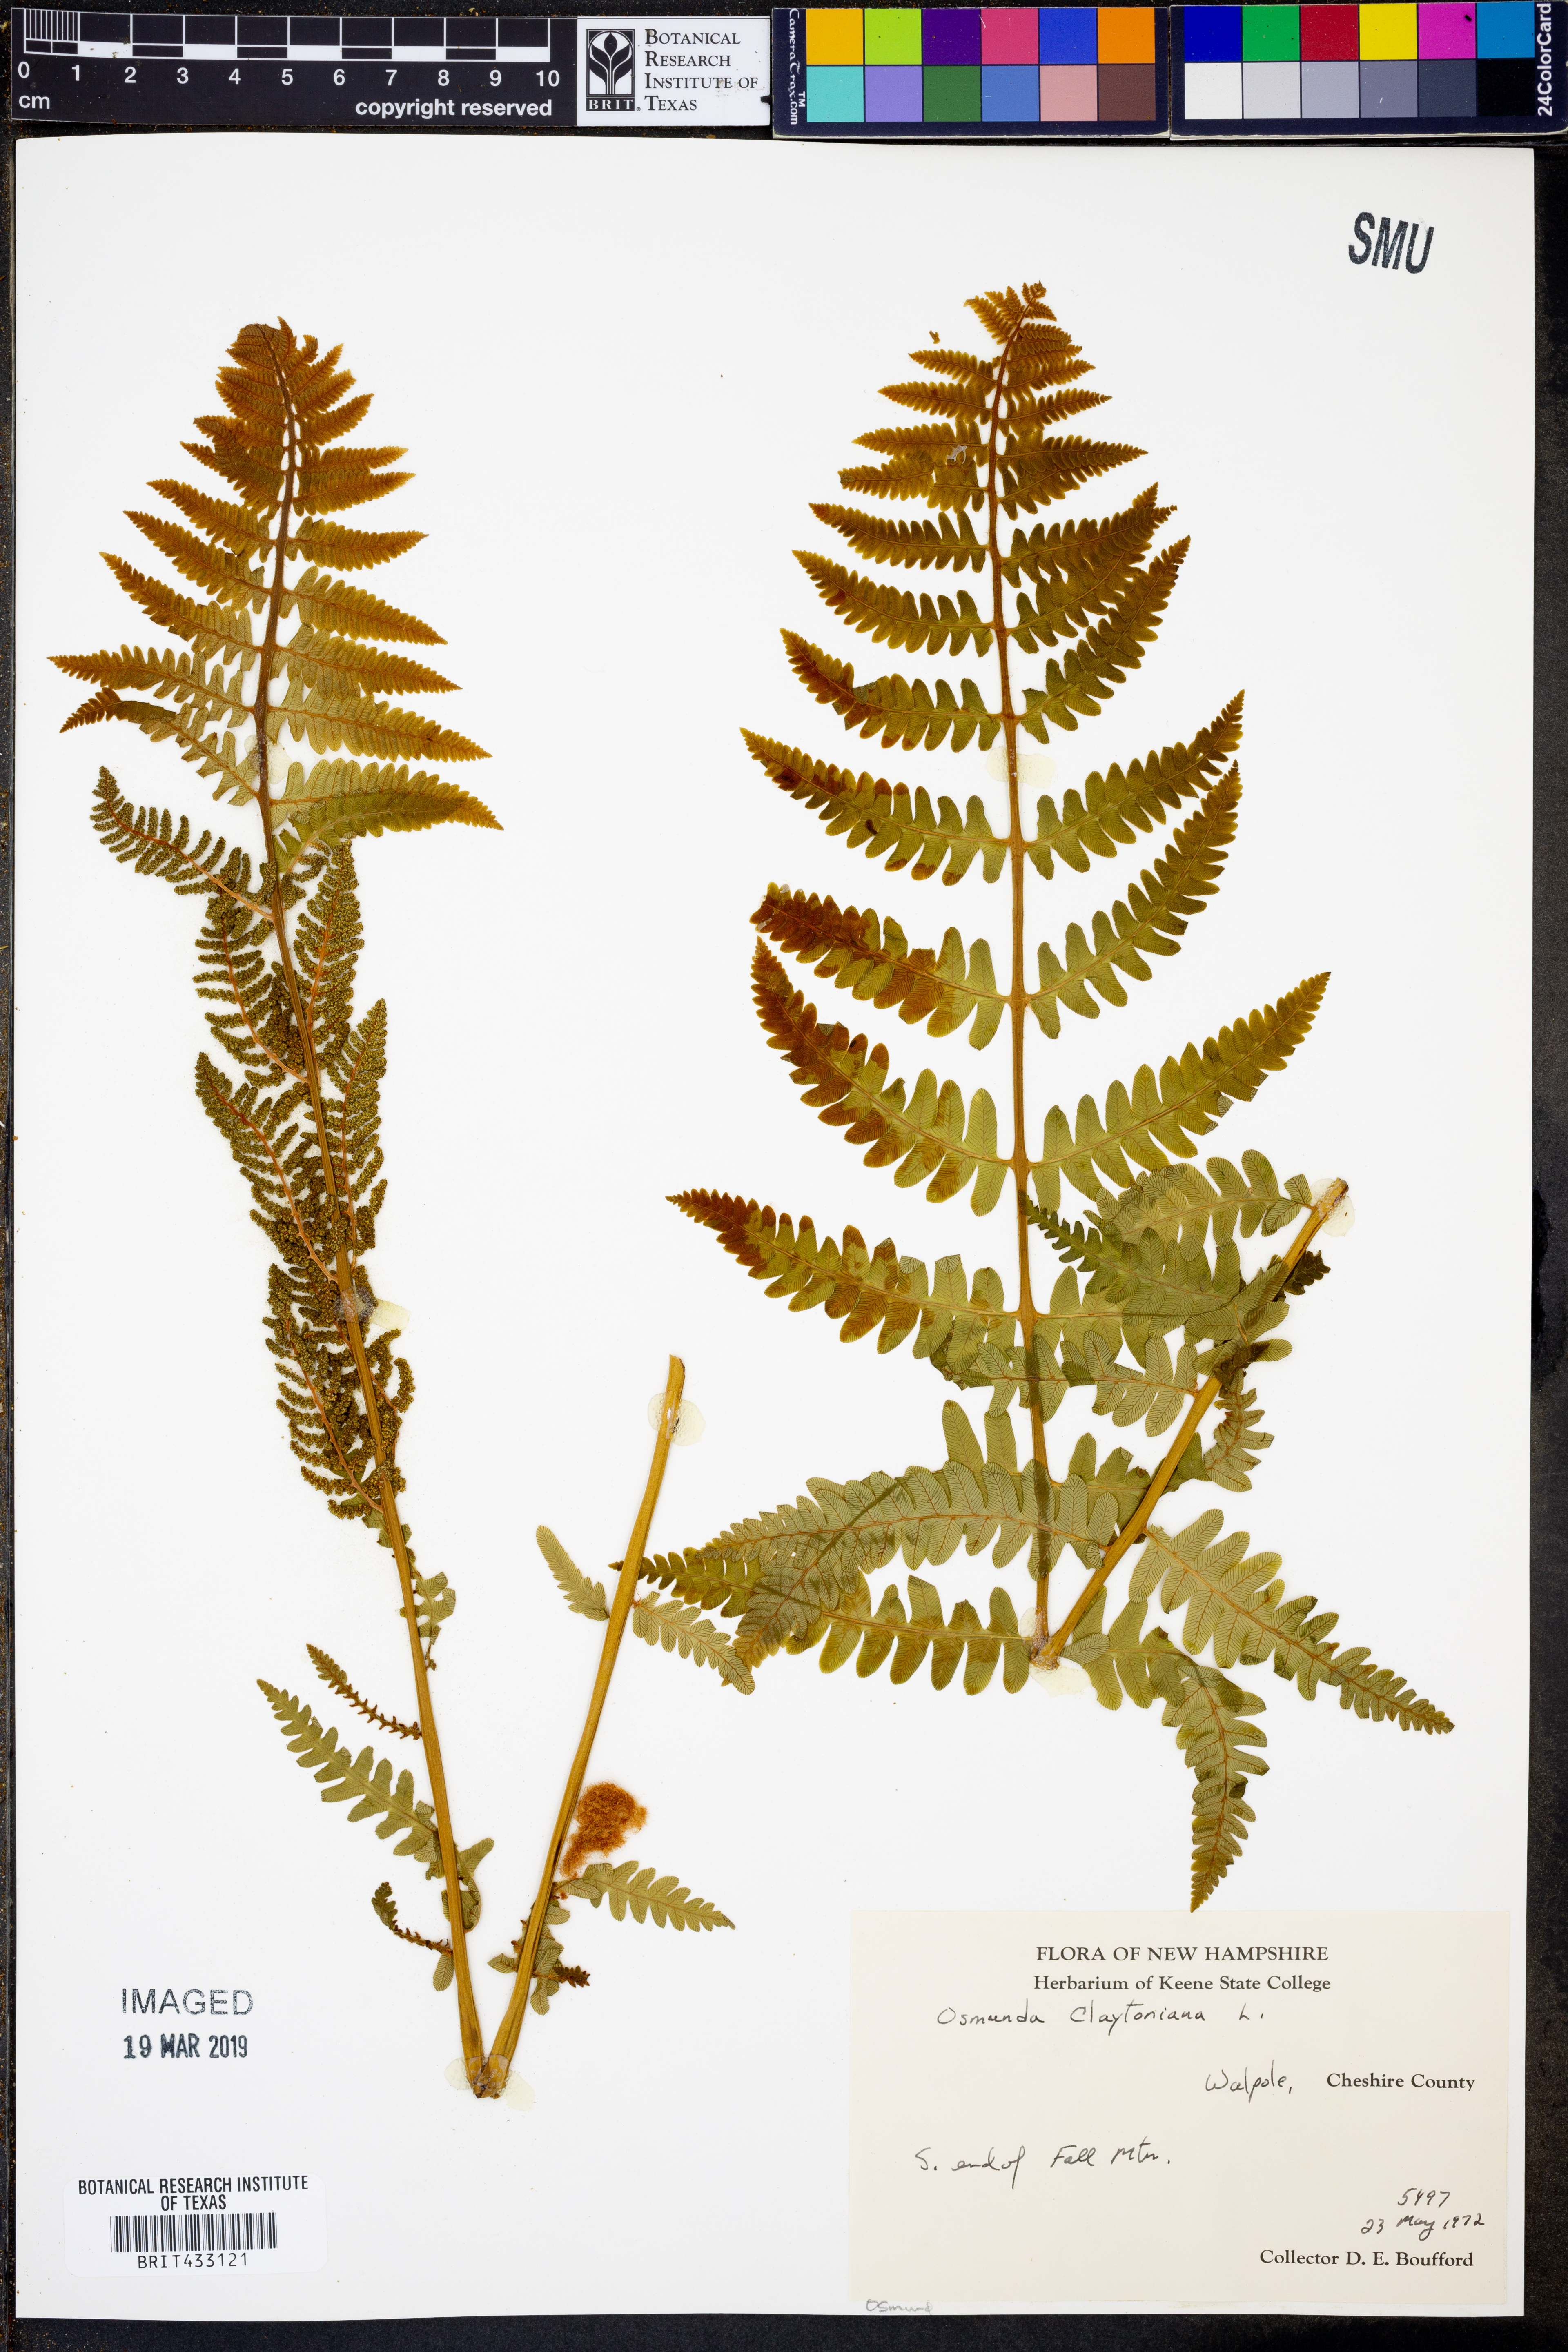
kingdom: Plantae
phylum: Tracheophyta
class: Polypodiopsida
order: Osmundales
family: Osmundaceae
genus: Claytosmunda
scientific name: Claytosmunda claytoniana
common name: Clayton's fern
